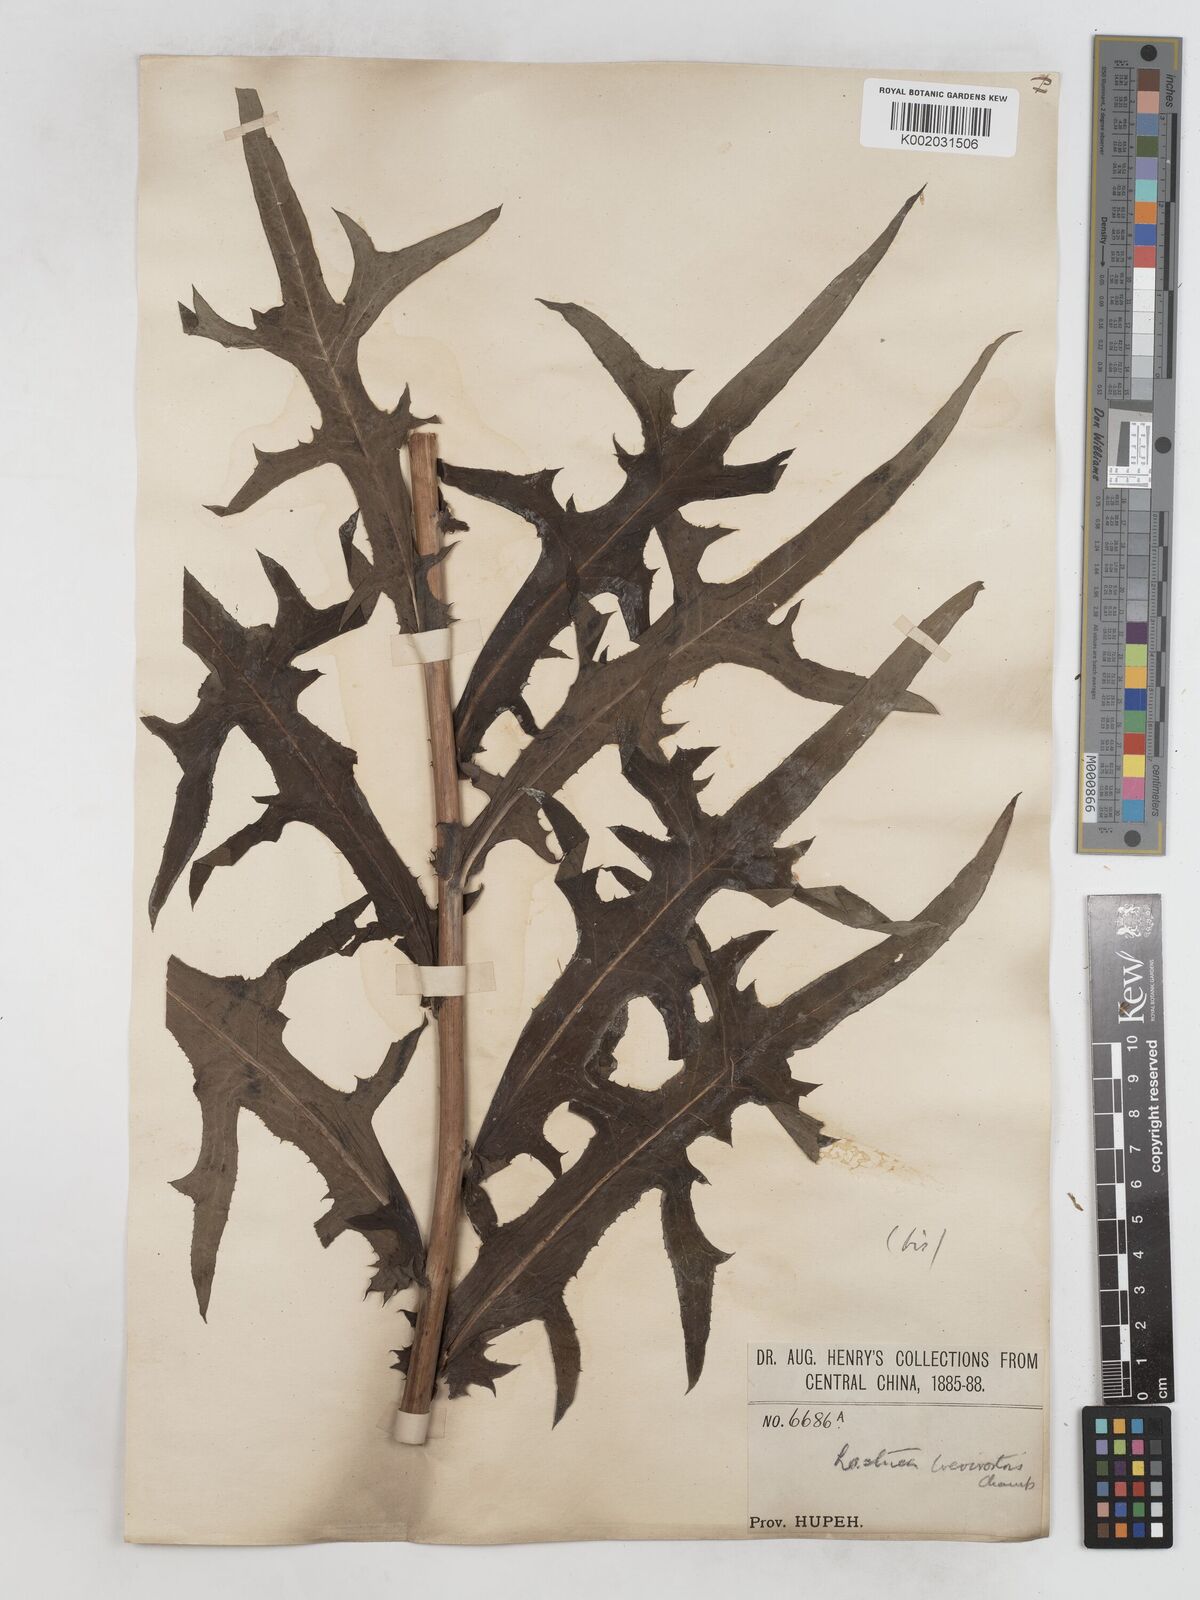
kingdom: Plantae
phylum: Tracheophyta
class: Magnoliopsida
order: Asterales
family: Asteraceae
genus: Lactuca
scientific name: Lactuca indica
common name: Wild lettuce
